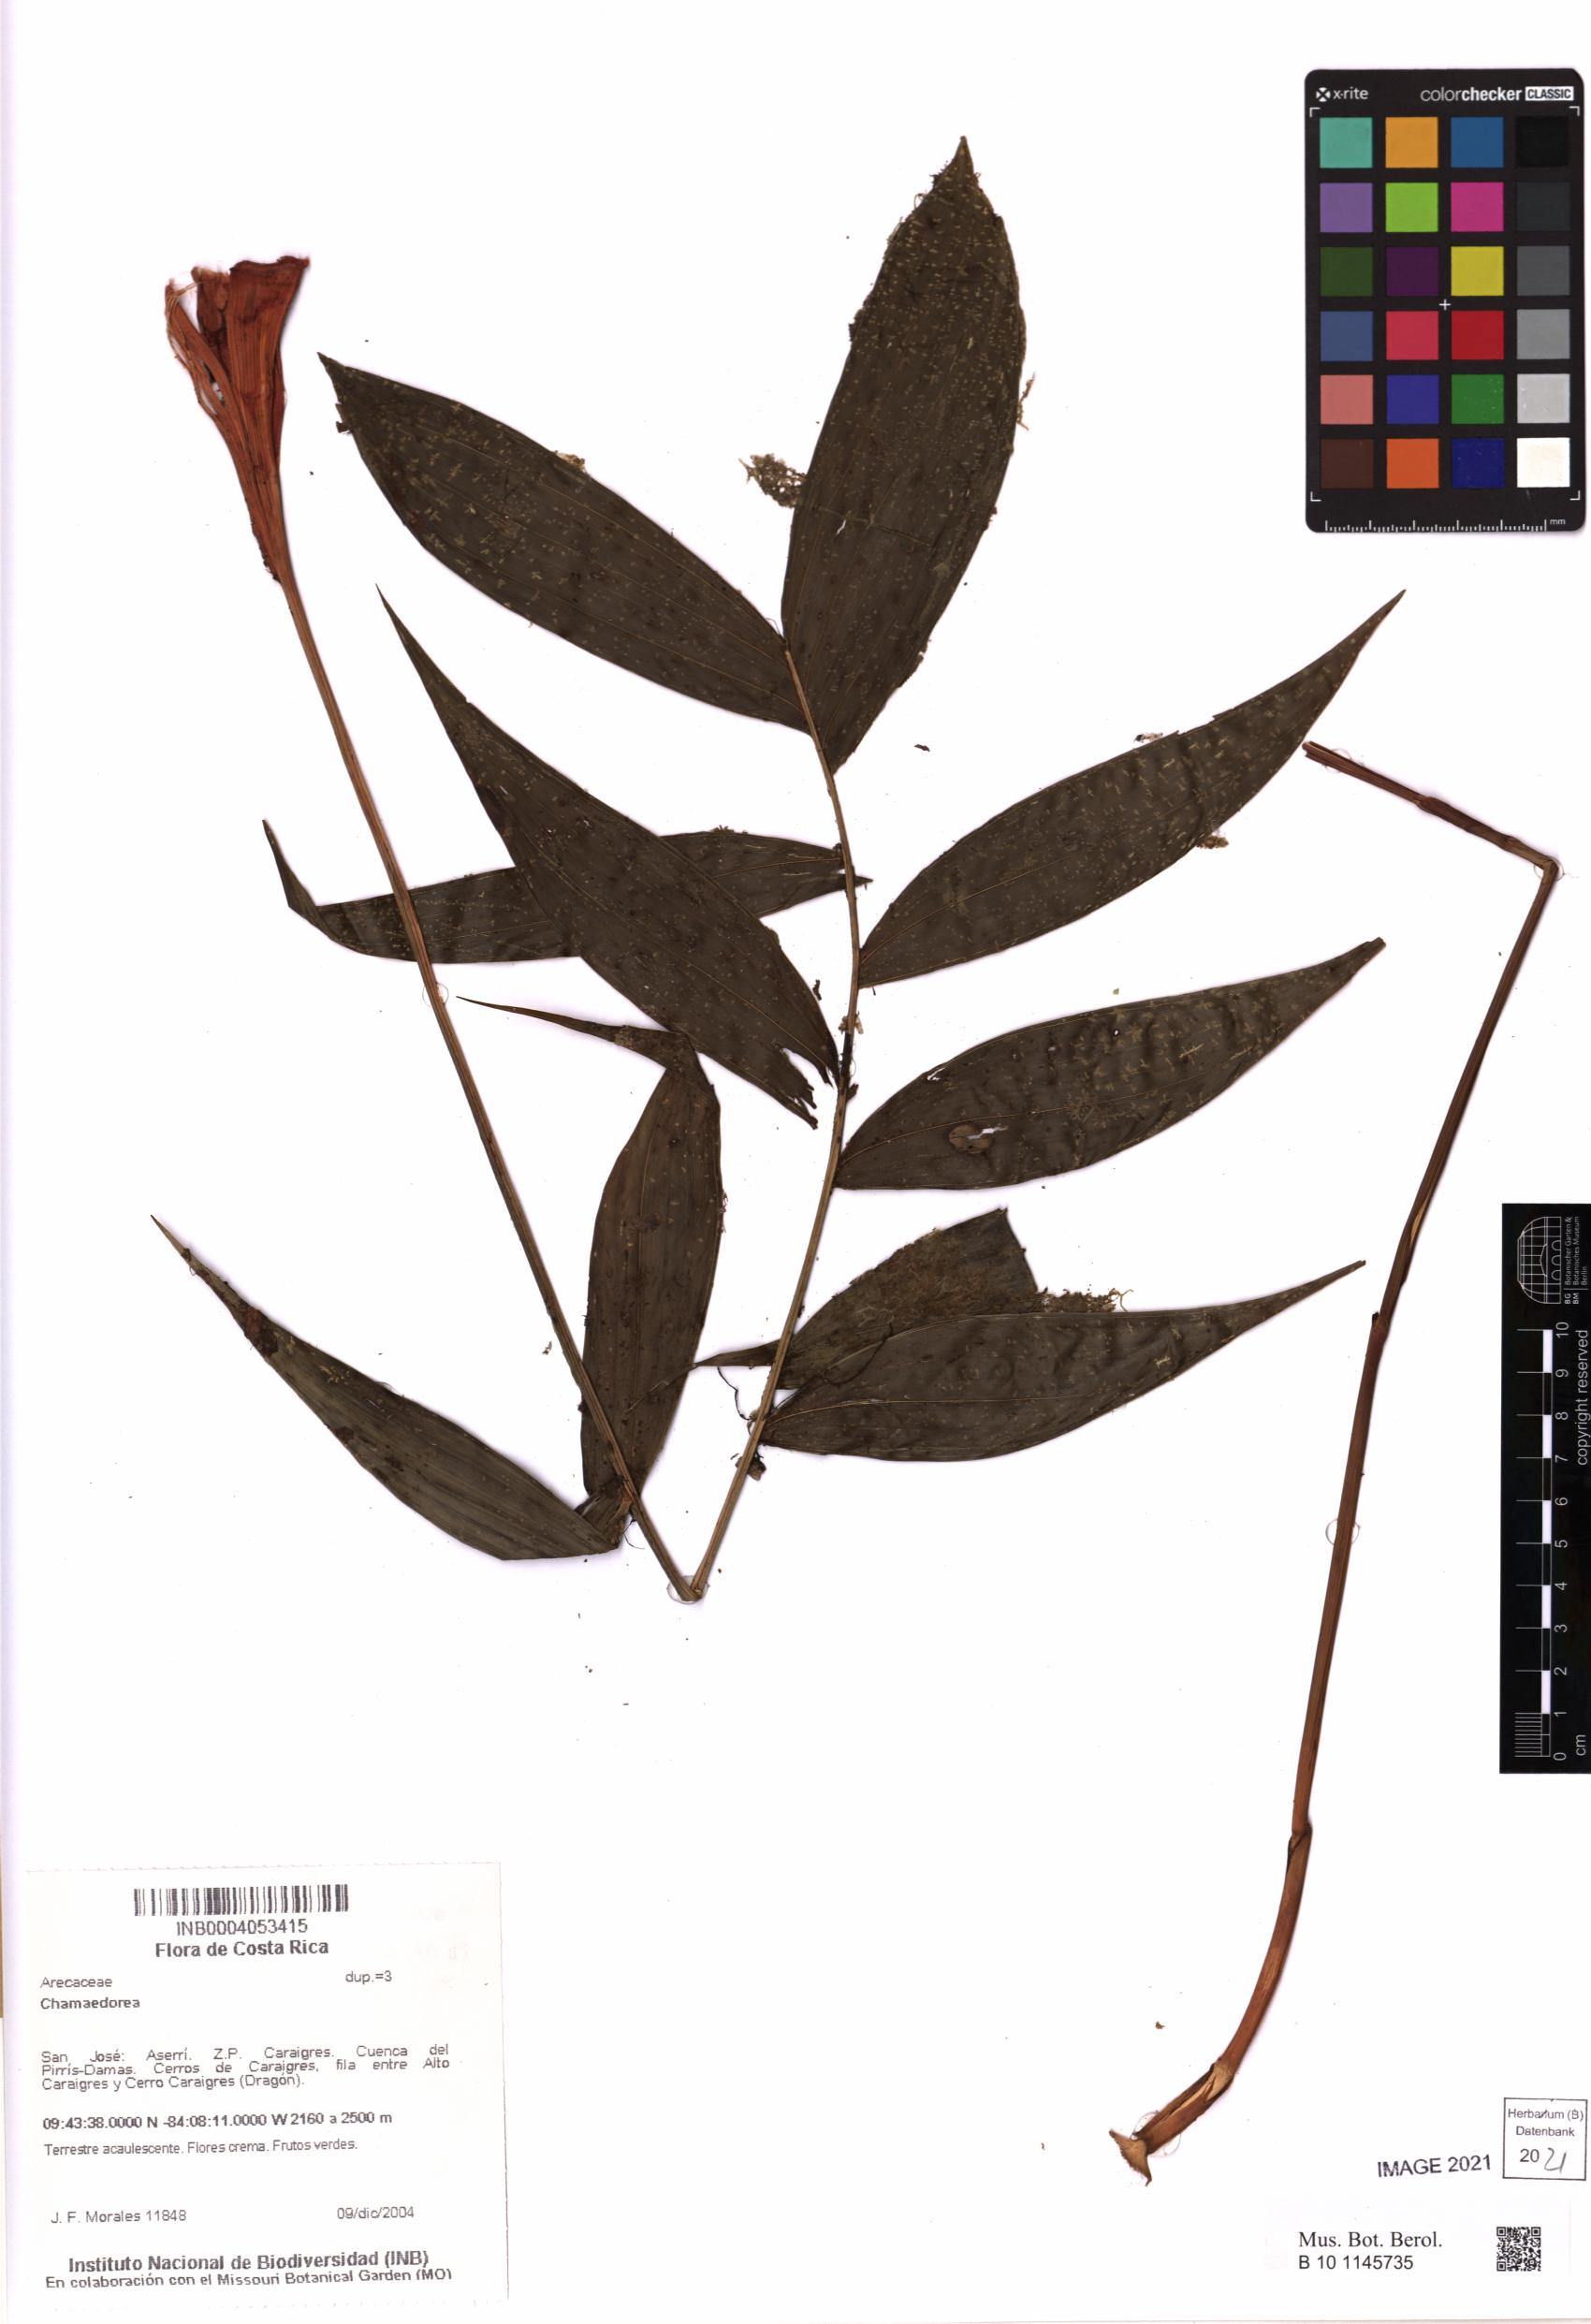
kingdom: Plantae
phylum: Tracheophyta
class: Liliopsida
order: Arecales
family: Arecaceae
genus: Chamaedorea
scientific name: Chamaedorea
